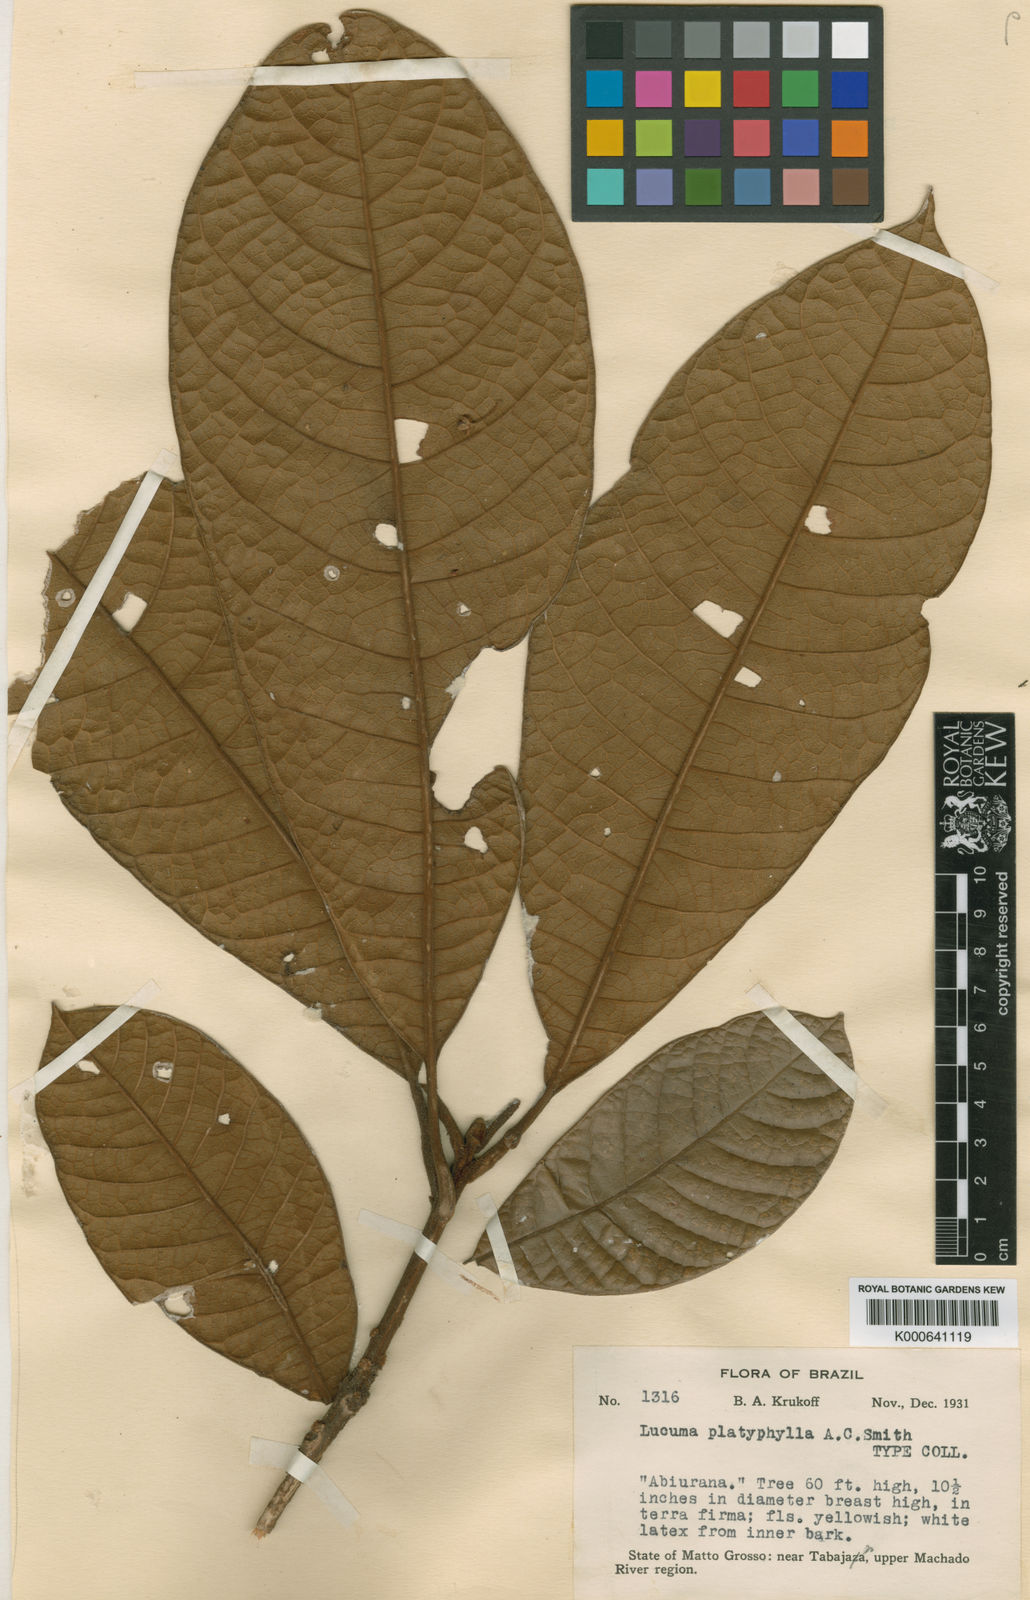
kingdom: Plantae
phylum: Tracheophyta
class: Magnoliopsida
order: Ericales
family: Sapotaceae
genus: Pouteria
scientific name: Pouteria platyphylla
